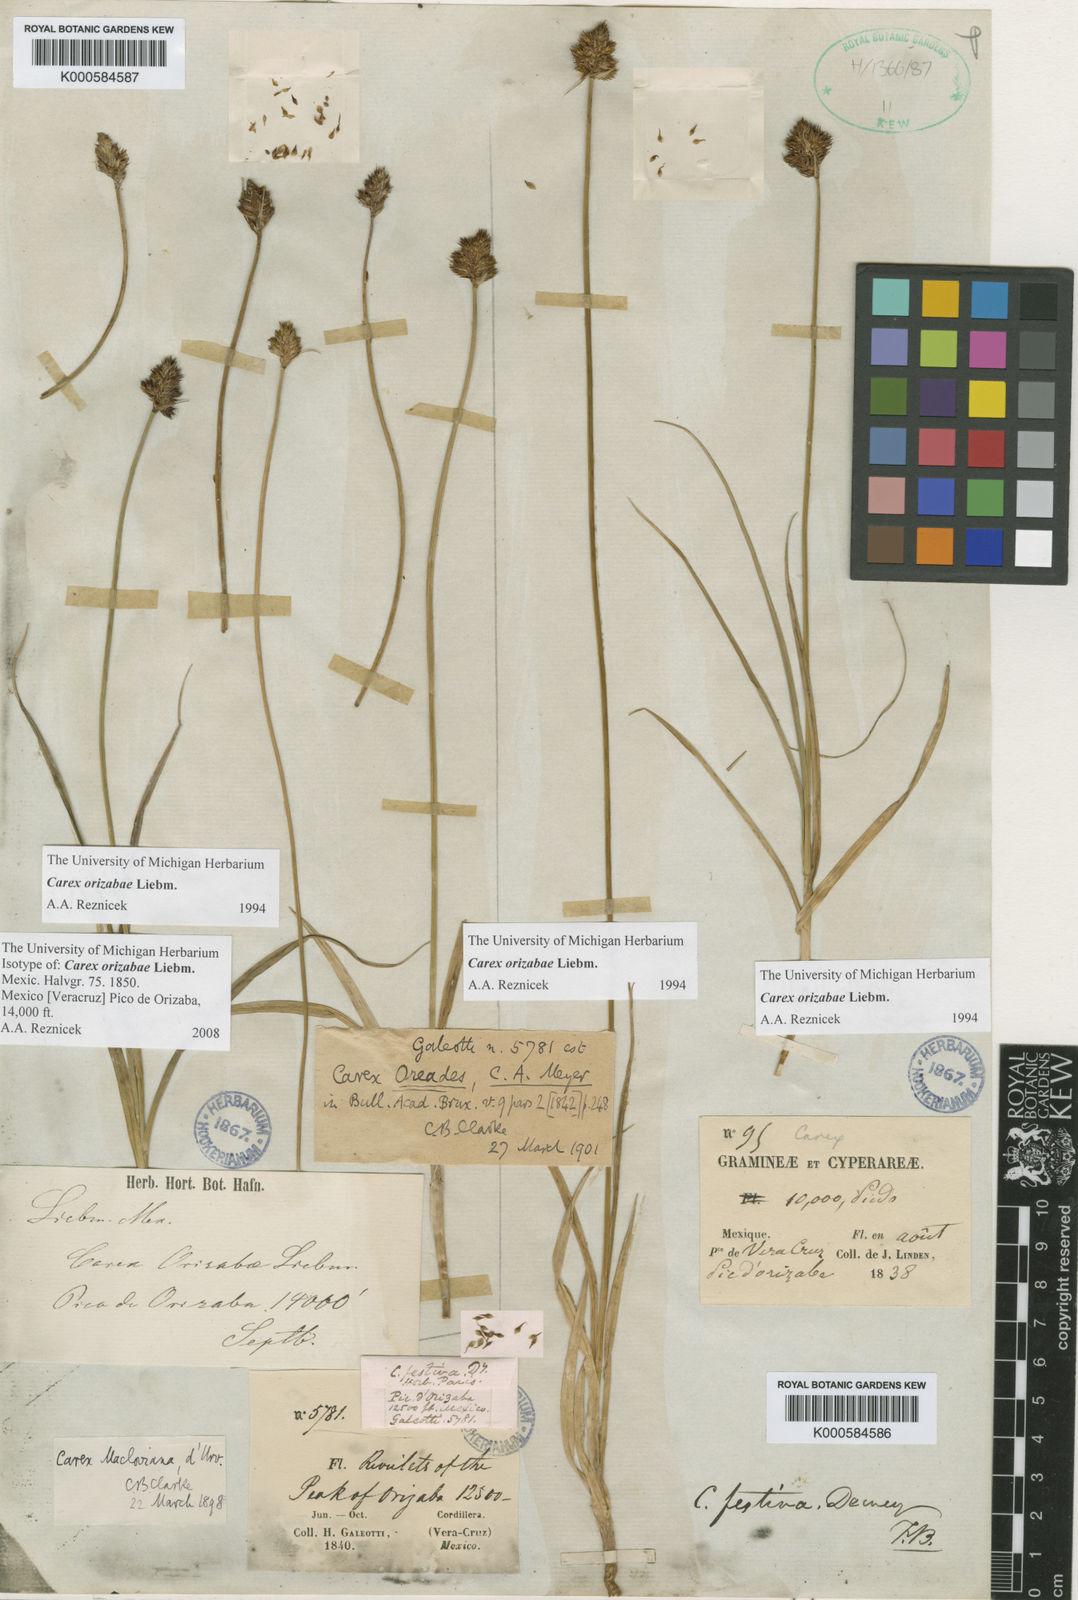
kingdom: Plantae
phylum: Tracheophyta
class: Liliopsida
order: Poales
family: Cyperaceae
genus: Carex
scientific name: Carex macloviana
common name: Falkland island sedge
